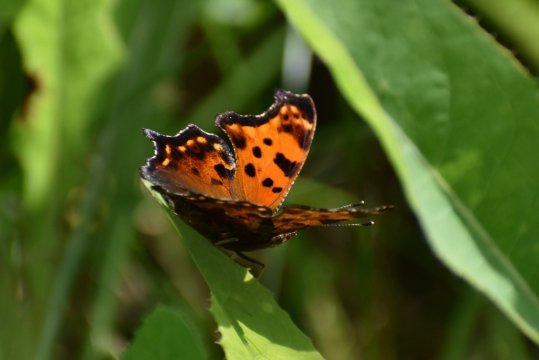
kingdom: Animalia
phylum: Arthropoda
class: Insecta
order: Lepidoptera
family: Nymphalidae
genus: Polygonia
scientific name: Polygonia comma
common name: Eastern Comma
